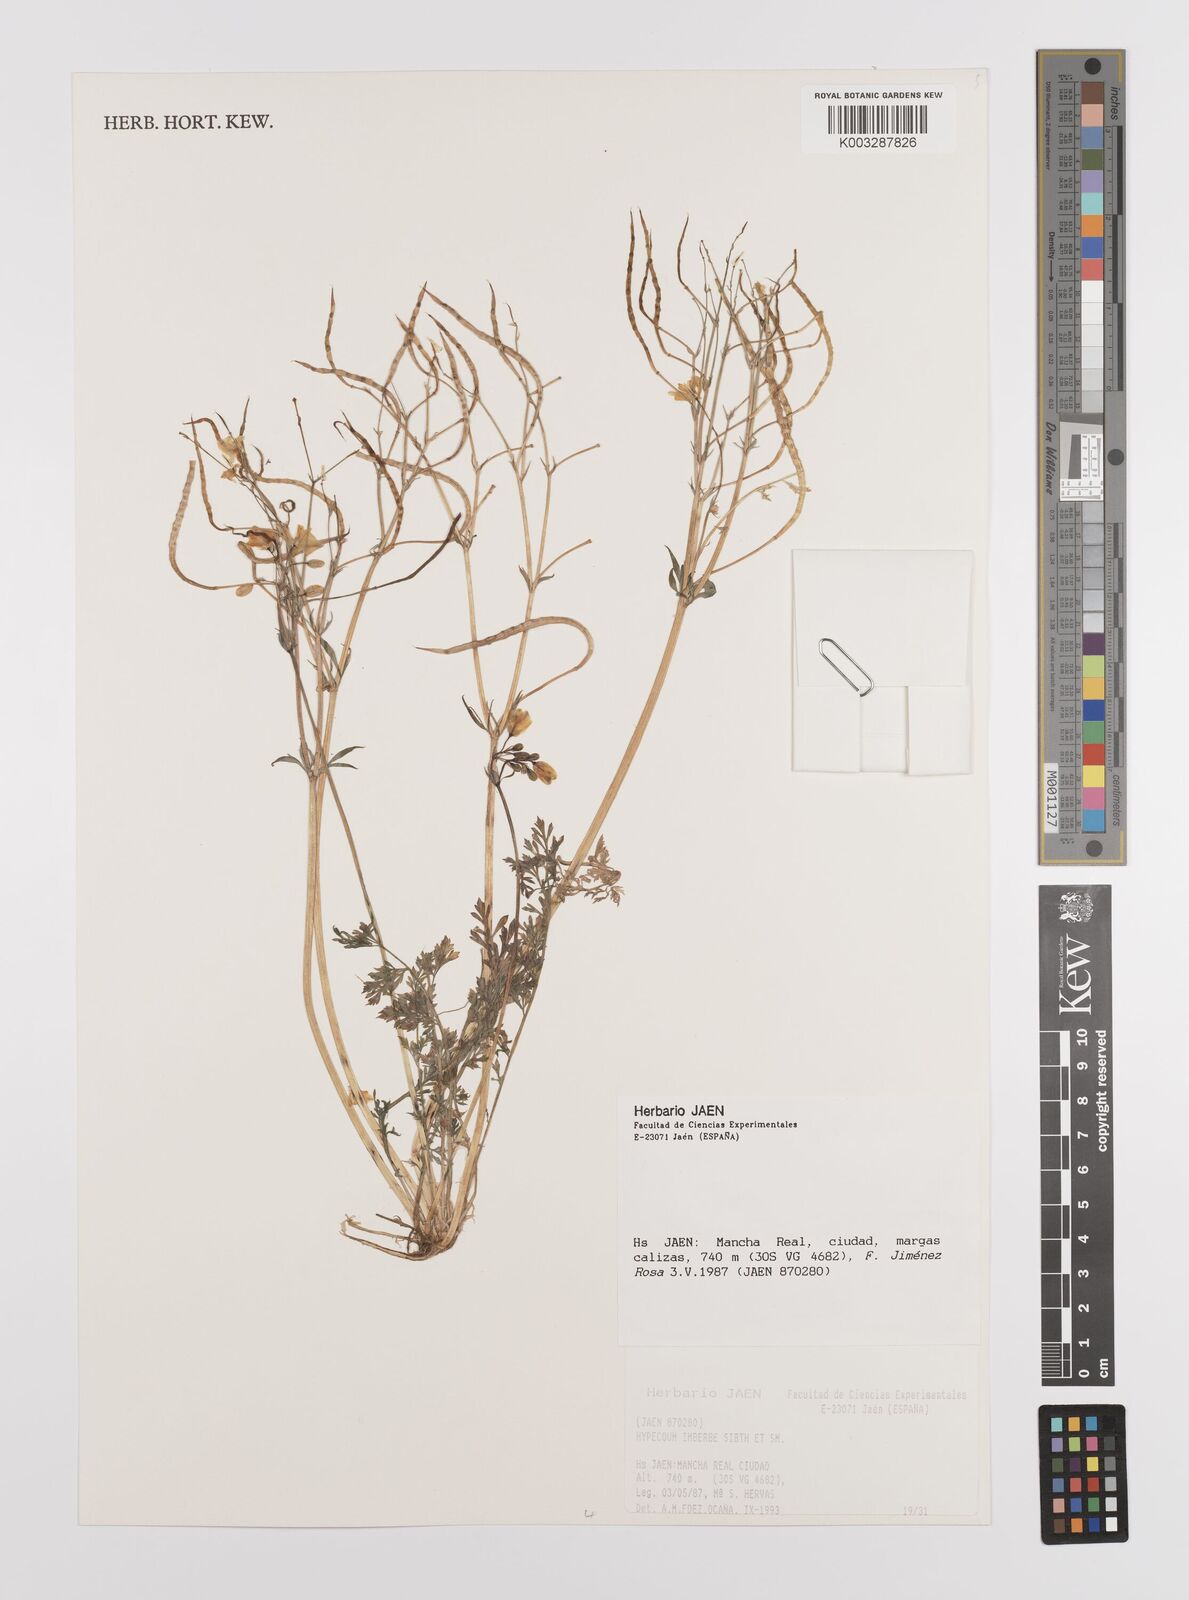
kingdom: Plantae
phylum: Tracheophyta
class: Magnoliopsida
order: Ranunculales
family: Papaveraceae
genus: Hypecoum
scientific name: Hypecoum imberbe
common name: Sicklefruit hypecoum
